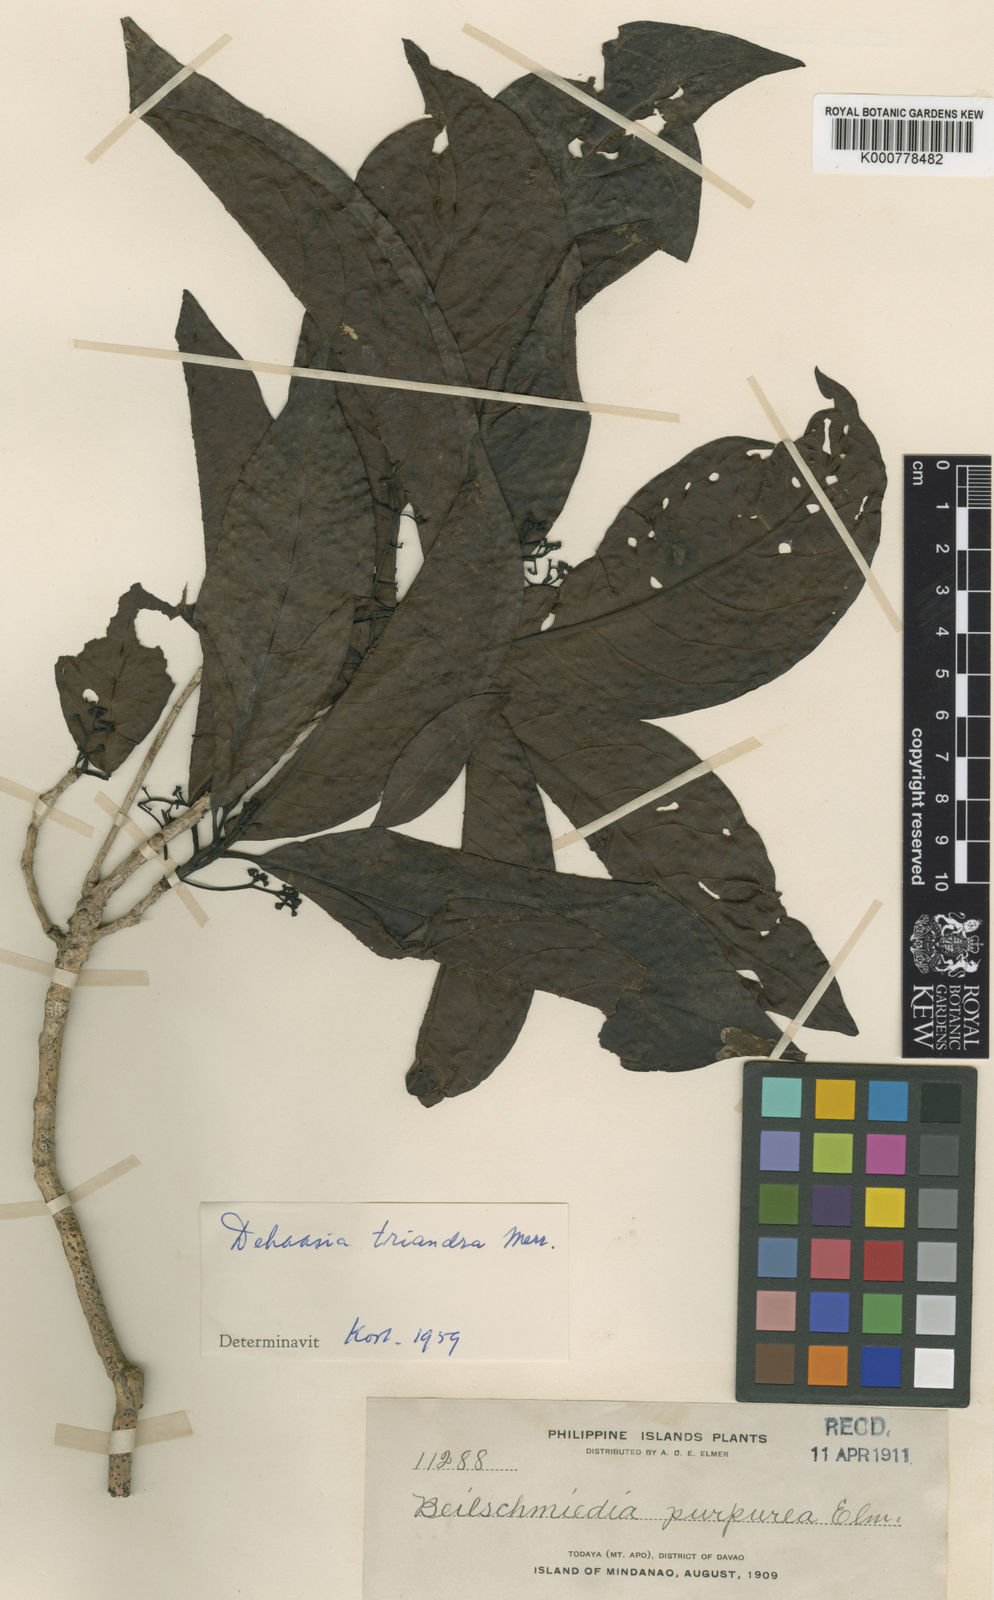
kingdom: Plantae
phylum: Tracheophyta
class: Magnoliopsida
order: Laurales
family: Lauraceae
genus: Dehaasia
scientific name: Dehaasia
